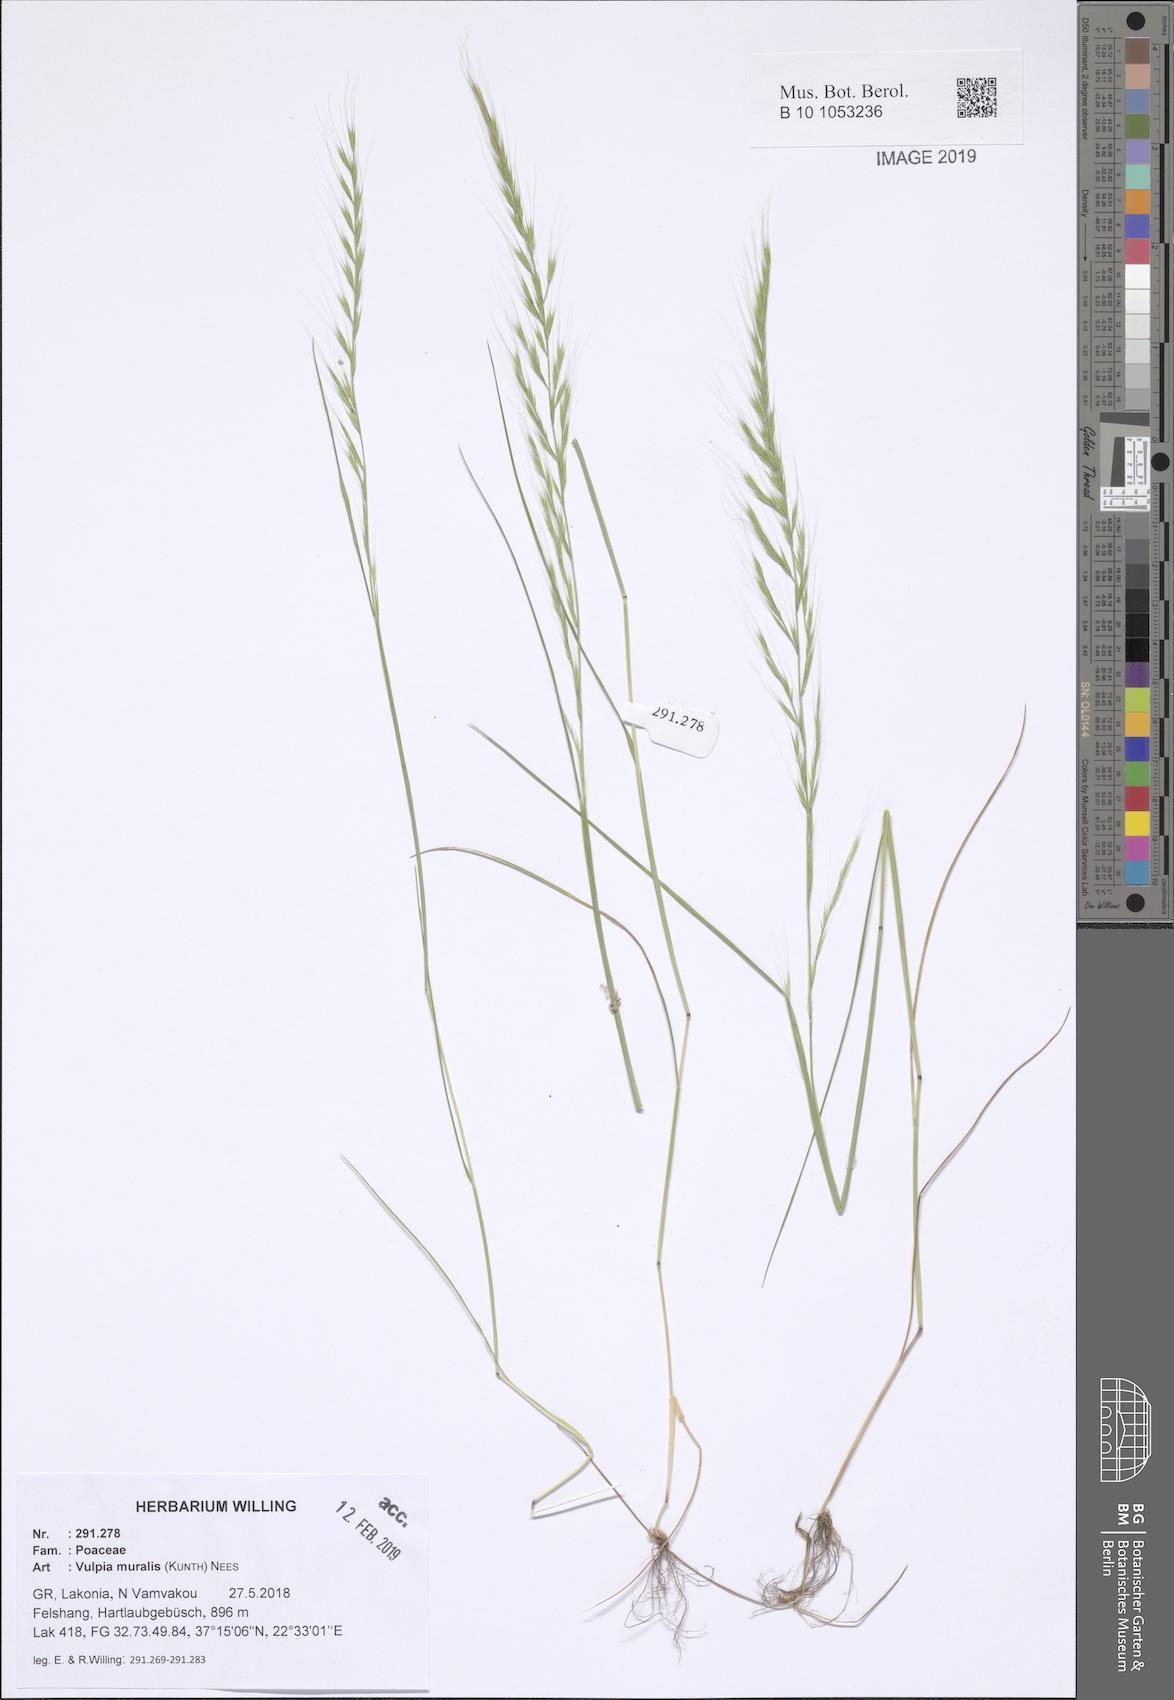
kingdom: Plantae
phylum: Tracheophyta
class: Liliopsida
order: Poales
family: Poaceae
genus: Festuca
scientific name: Festuca muralis
